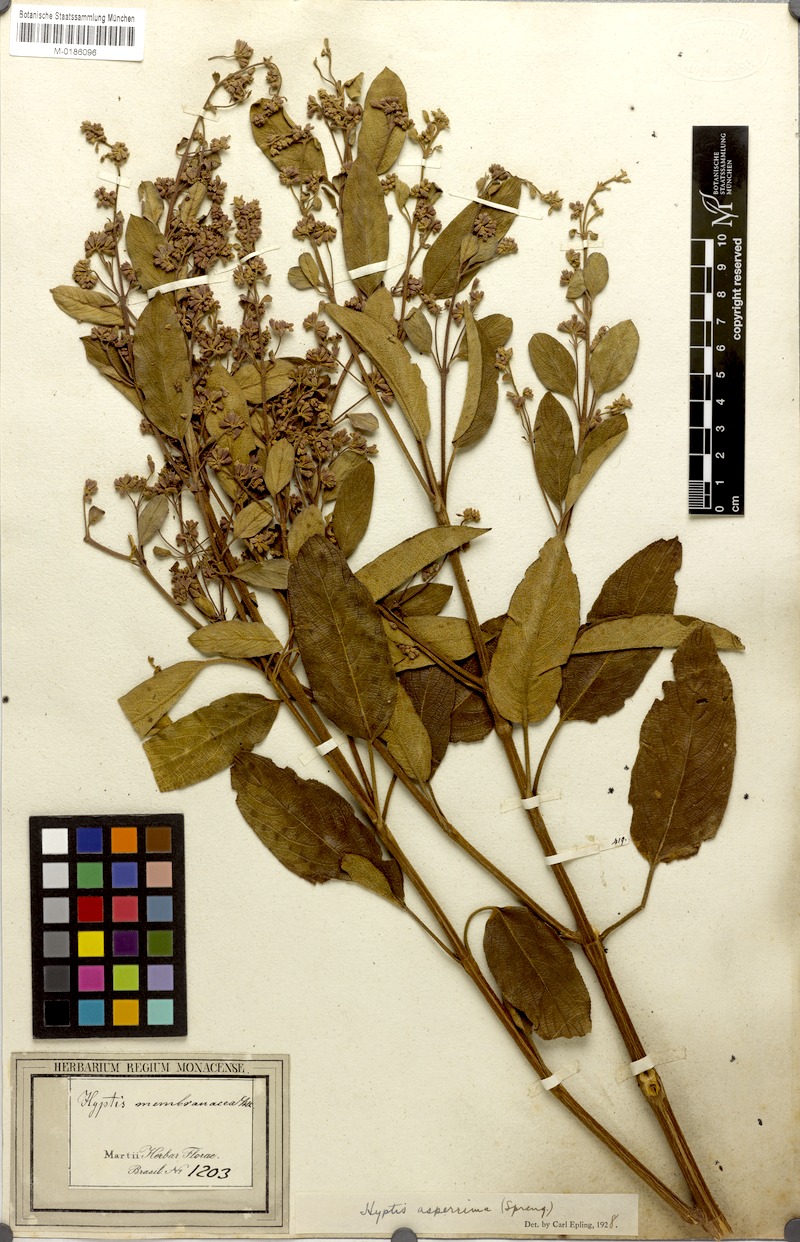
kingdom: Plantae
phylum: Tracheophyta
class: Magnoliopsida
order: Lamiales
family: Lamiaceae
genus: Hyptidendron
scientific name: Hyptidendron asperrimum
